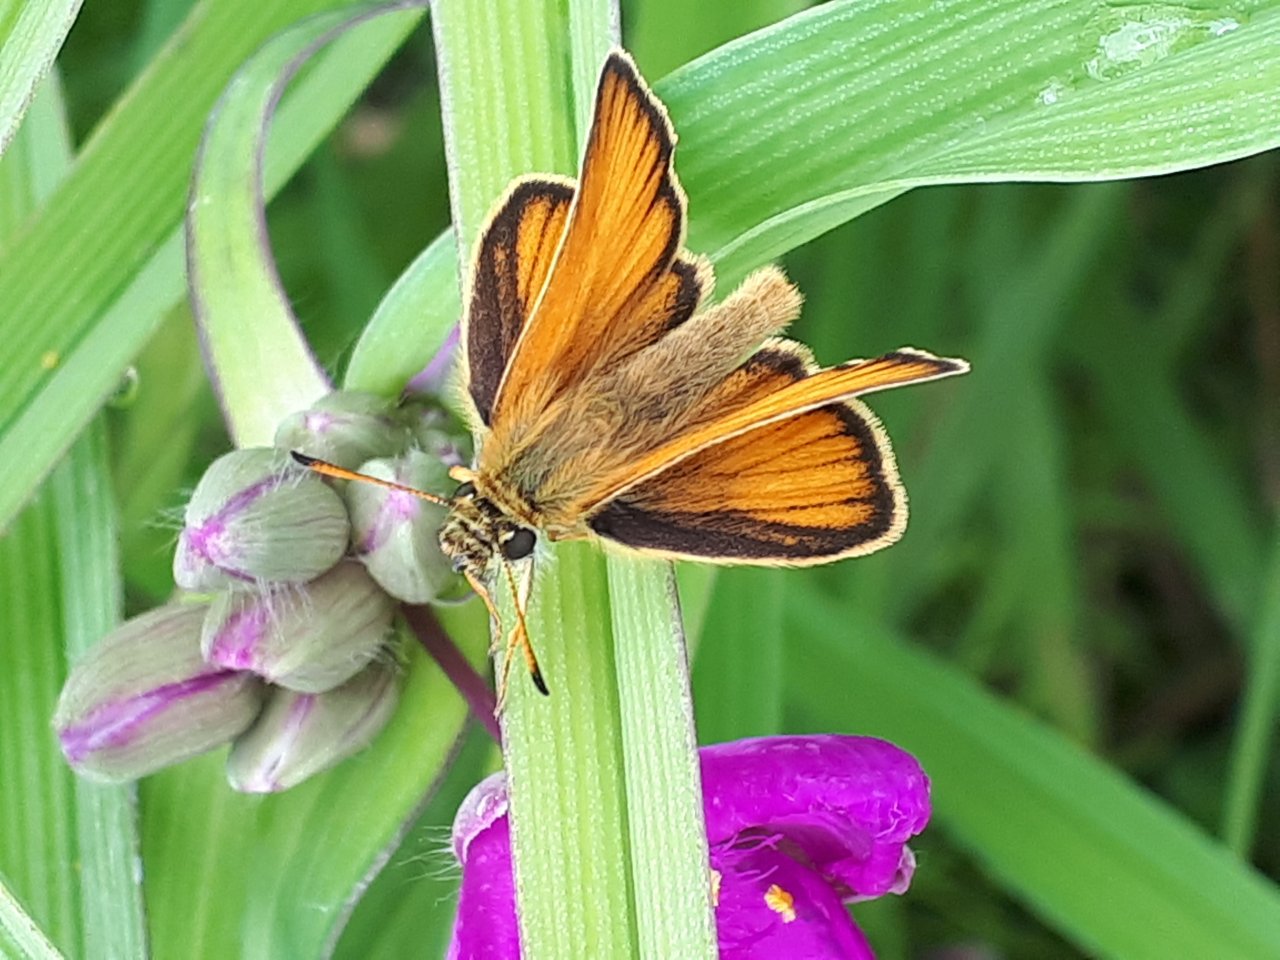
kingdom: Animalia
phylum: Arthropoda
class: Insecta
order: Lepidoptera
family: Hesperiidae
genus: Thymelicus
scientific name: Thymelicus lineola
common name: European Skipper
